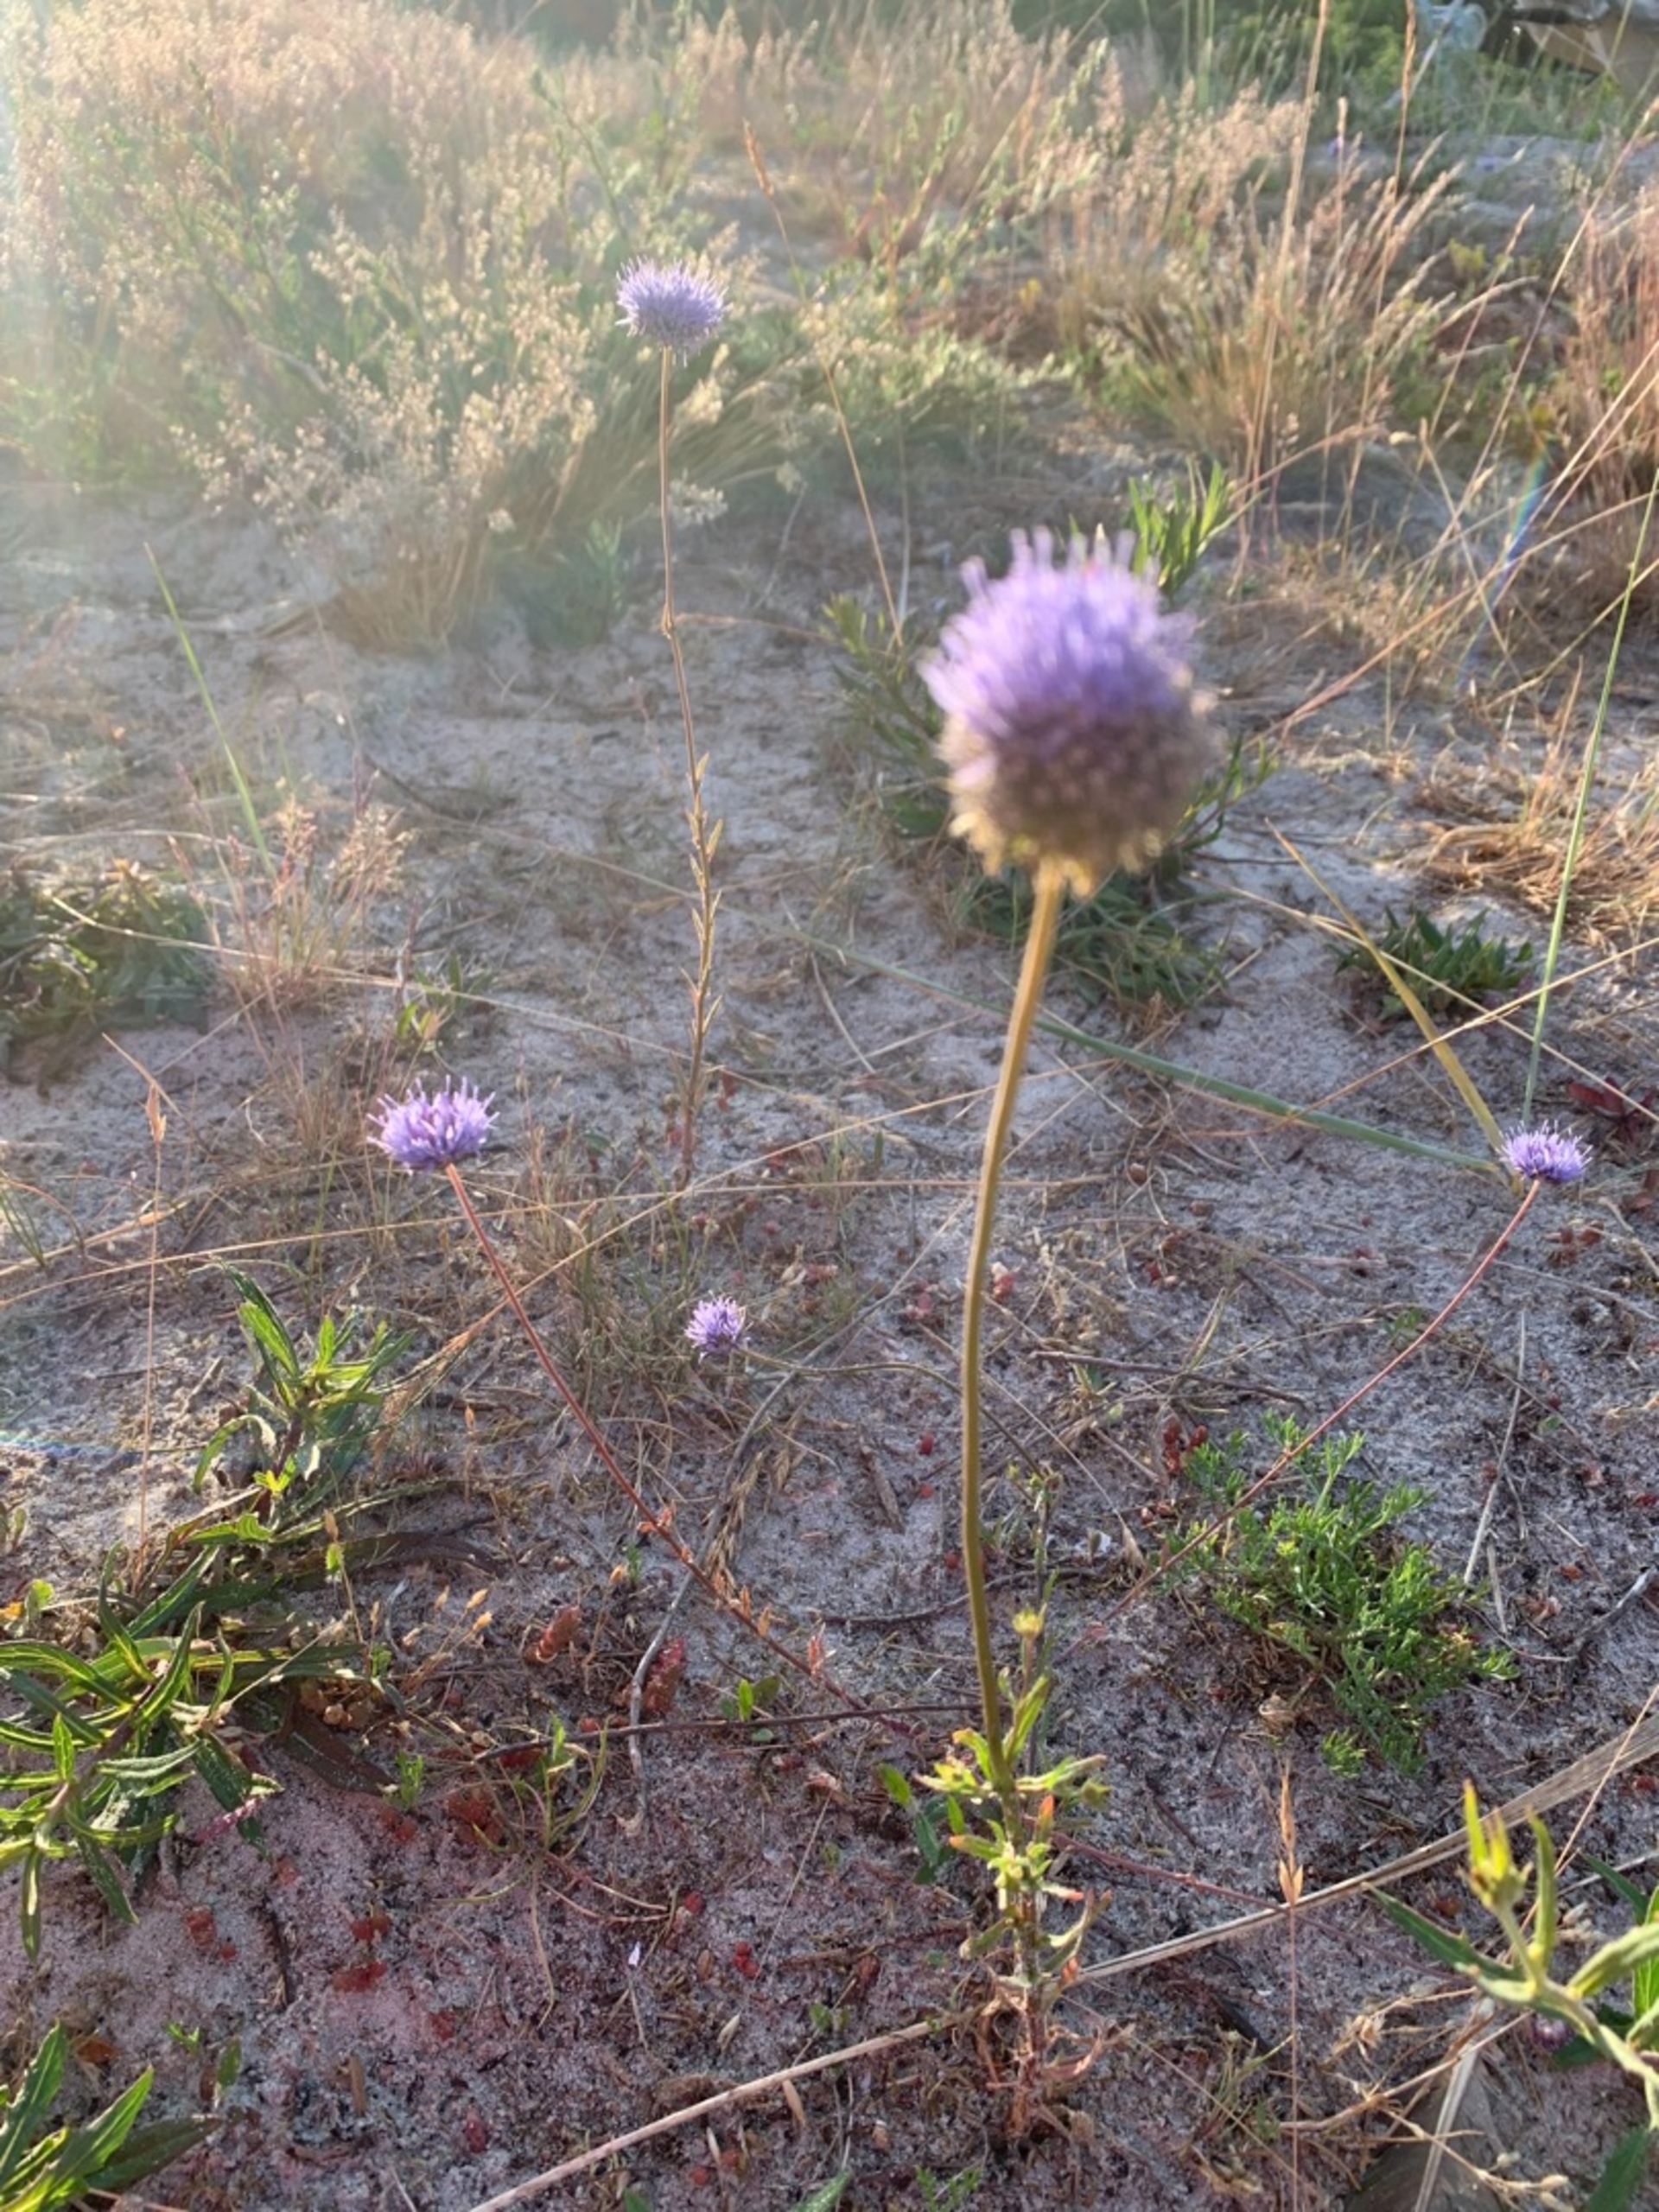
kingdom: Plantae
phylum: Tracheophyta
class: Magnoliopsida
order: Asterales
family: Campanulaceae
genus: Jasione
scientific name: Jasione montana
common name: Blåmunke
